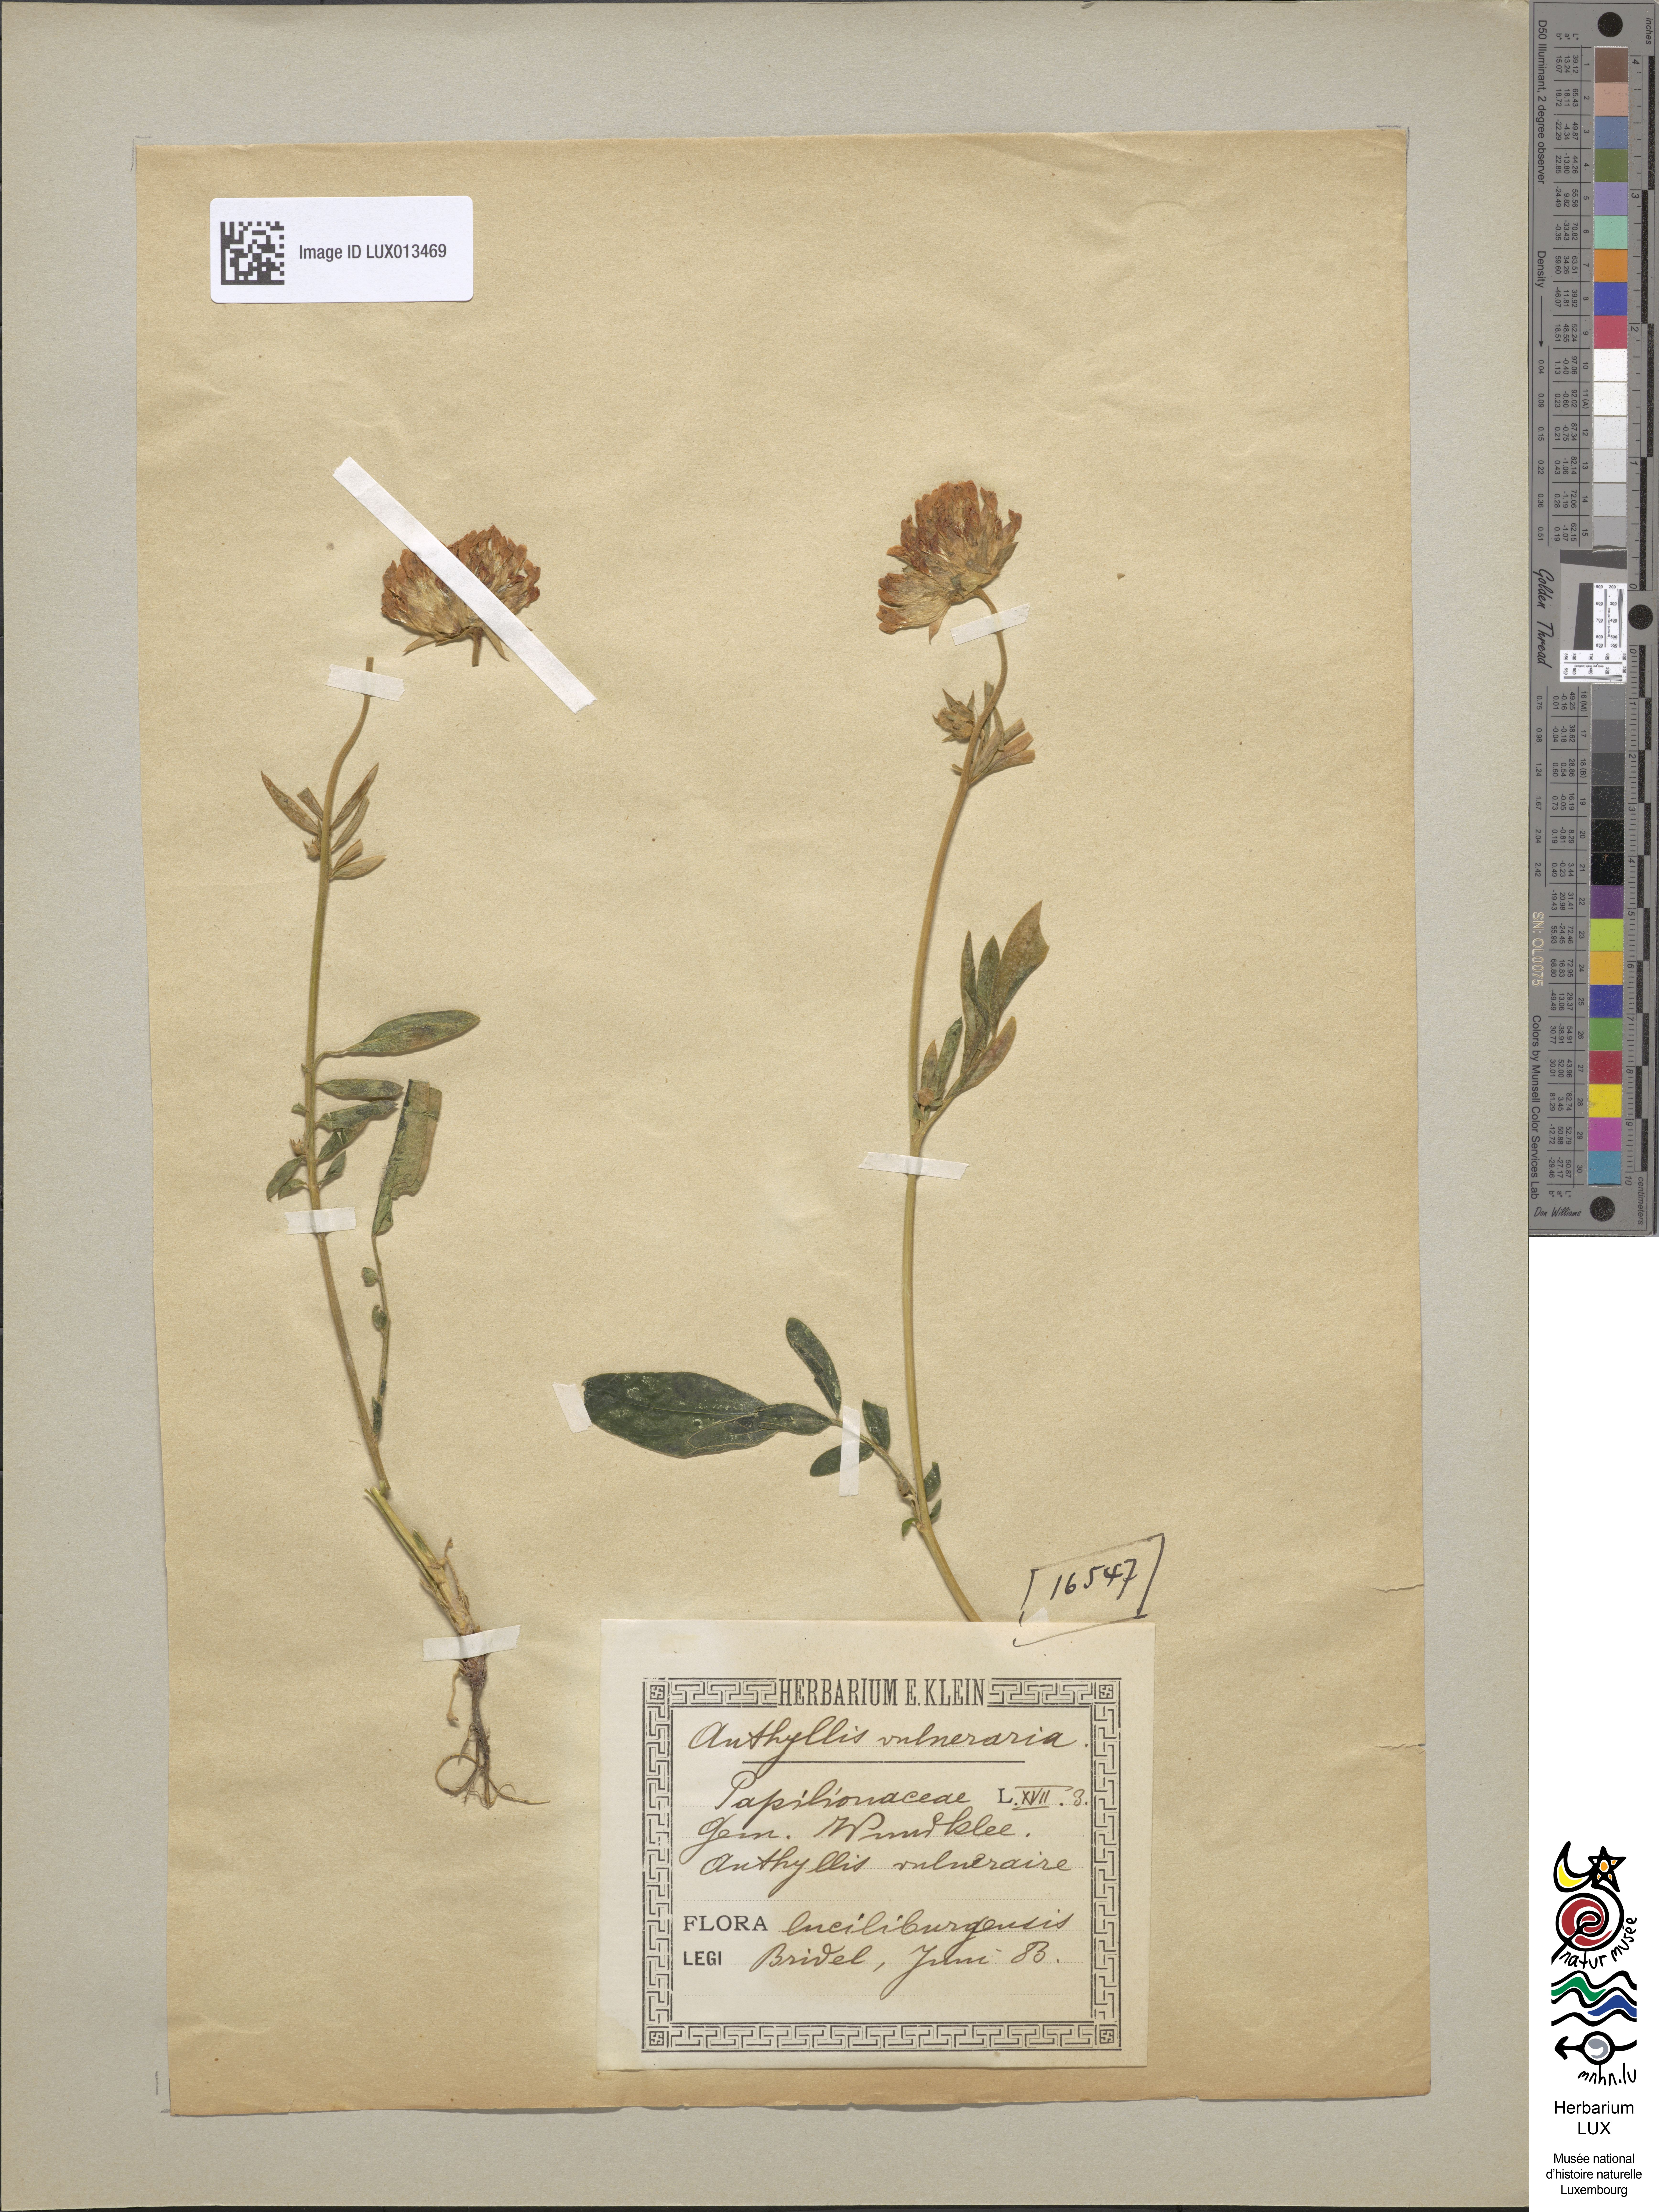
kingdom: Plantae
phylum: Tracheophyta
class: Magnoliopsida
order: Fabales
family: Fabaceae
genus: Anthyllis
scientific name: Anthyllis vulneraria
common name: Kidney vetch
